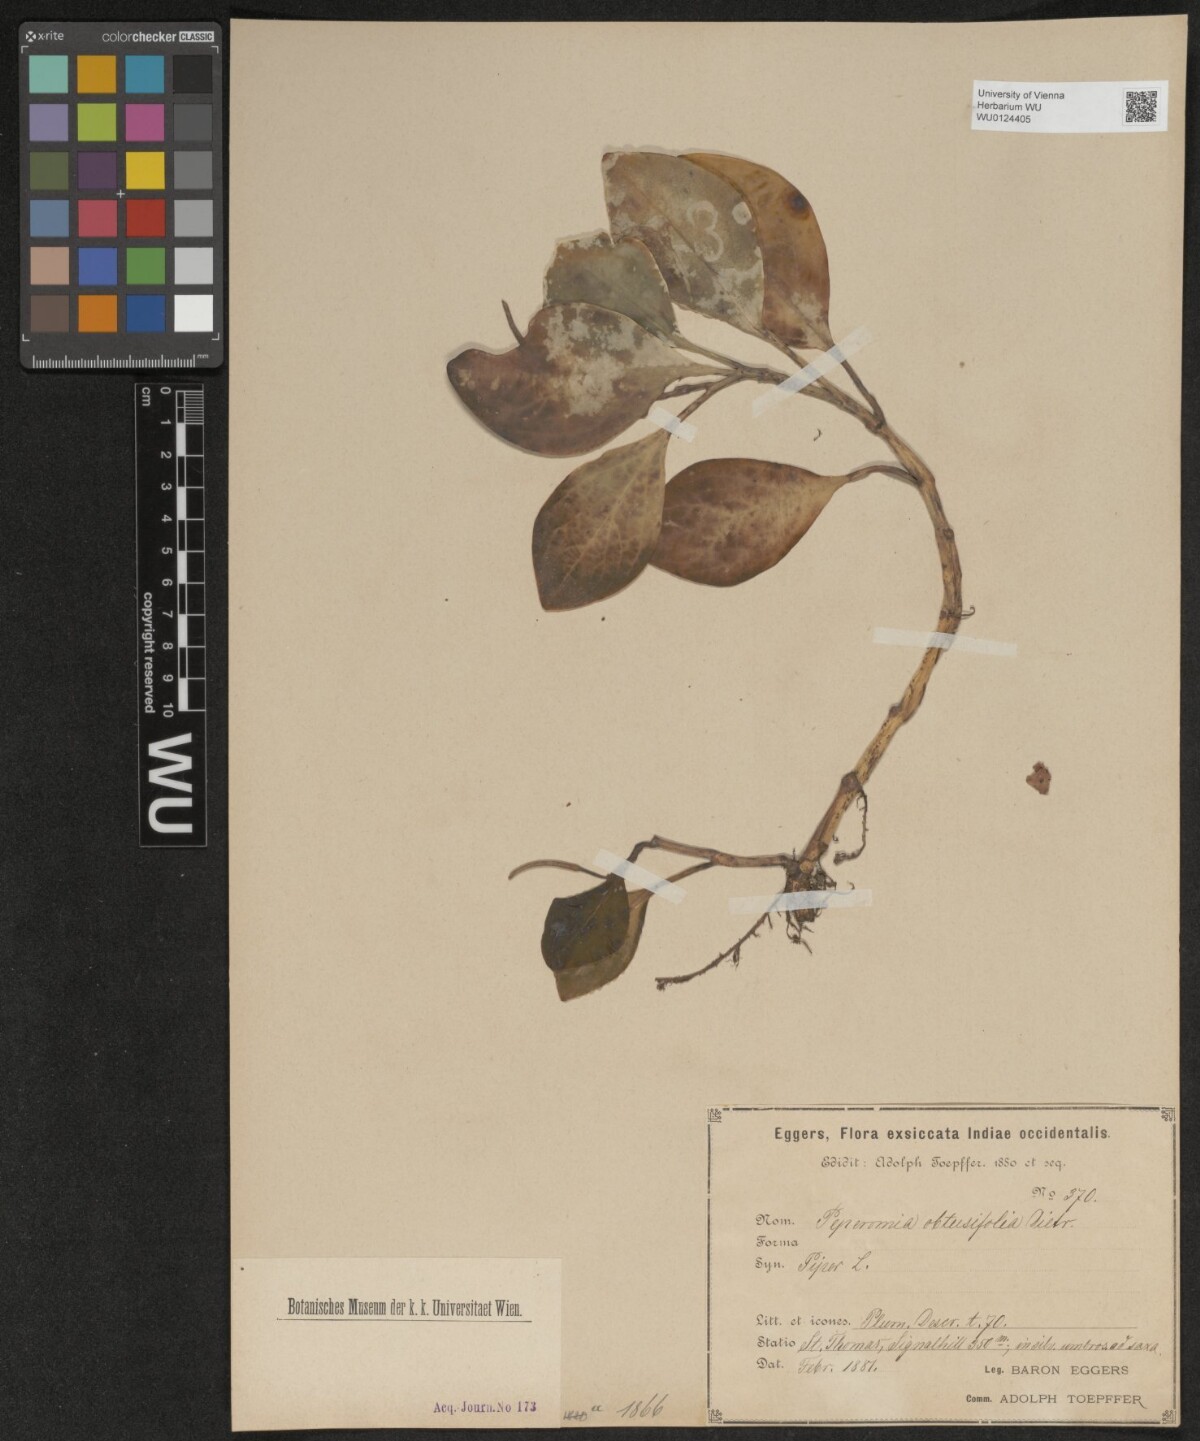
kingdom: Plantae
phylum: Tracheophyta
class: Magnoliopsida
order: Piperales
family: Piperaceae
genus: Peperomia
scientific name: Peperomia obtusifolia
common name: Baby rubberplant
